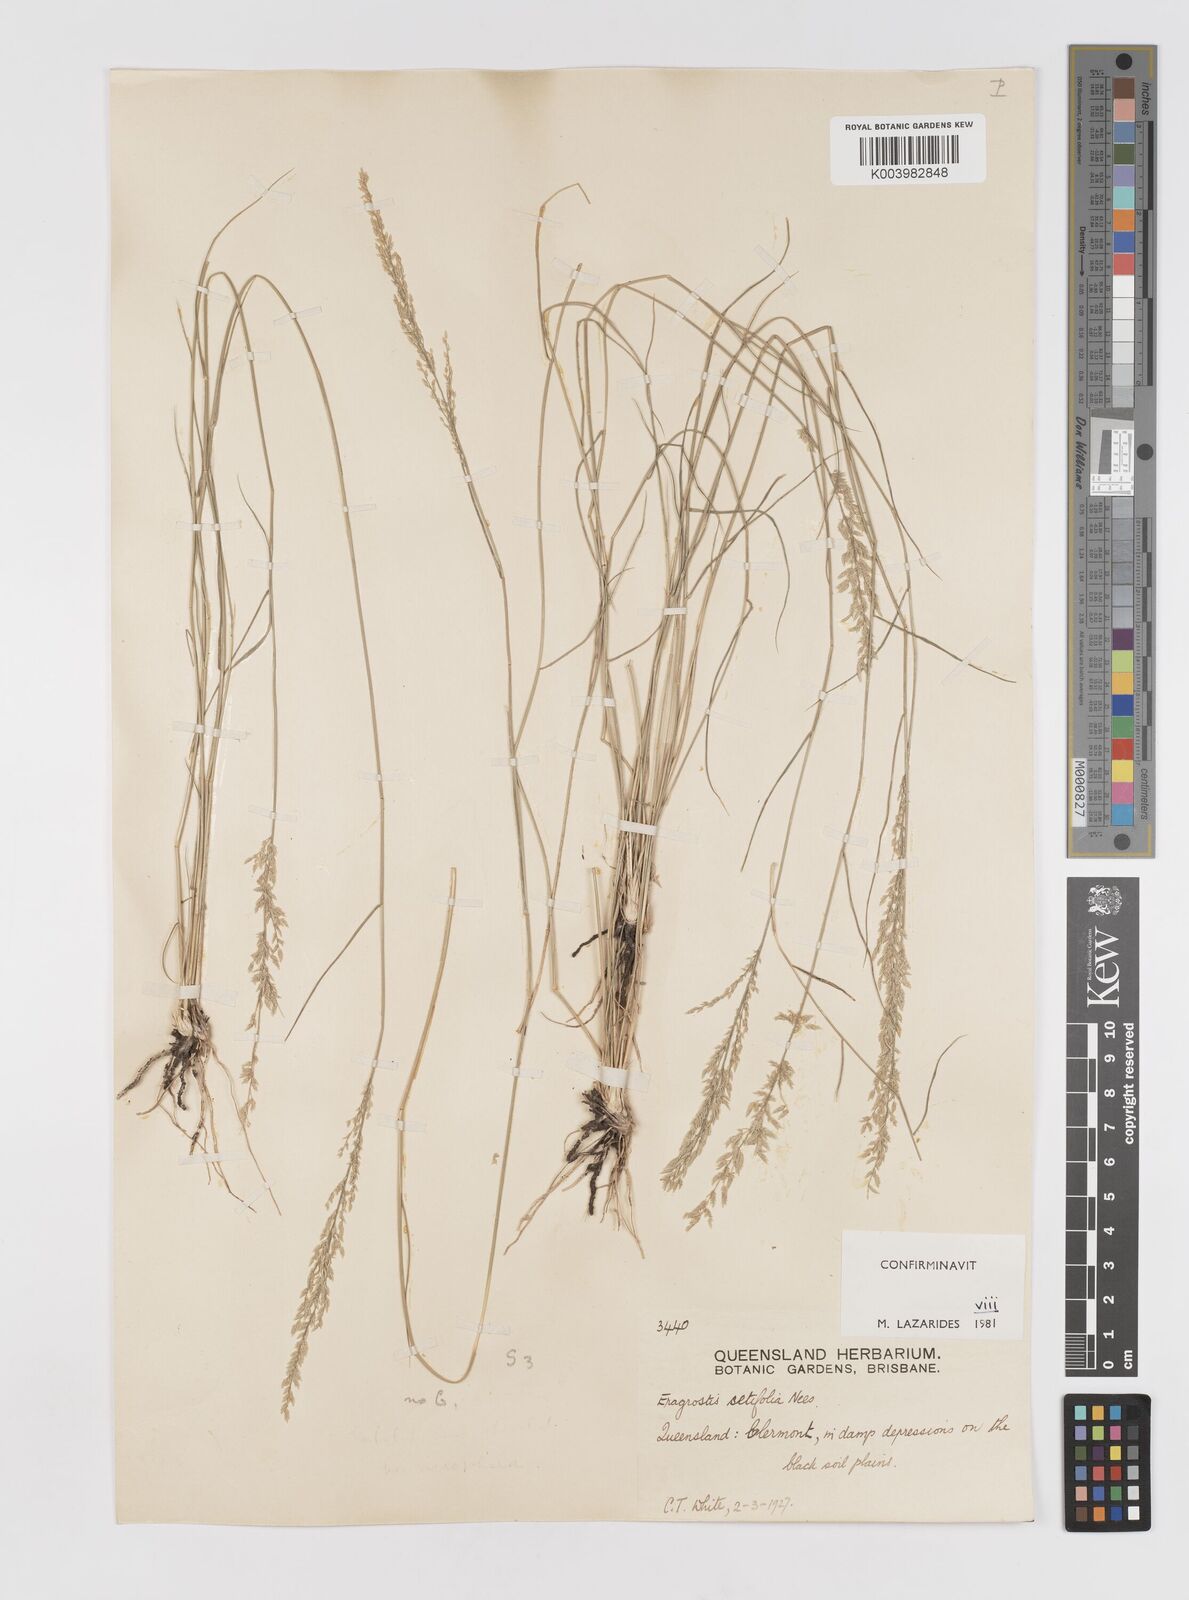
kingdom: Plantae
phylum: Tracheophyta
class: Liliopsida
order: Poales
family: Poaceae
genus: Eragrostis
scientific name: Eragrostis setifolia
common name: Bristleleaf lovegrass
